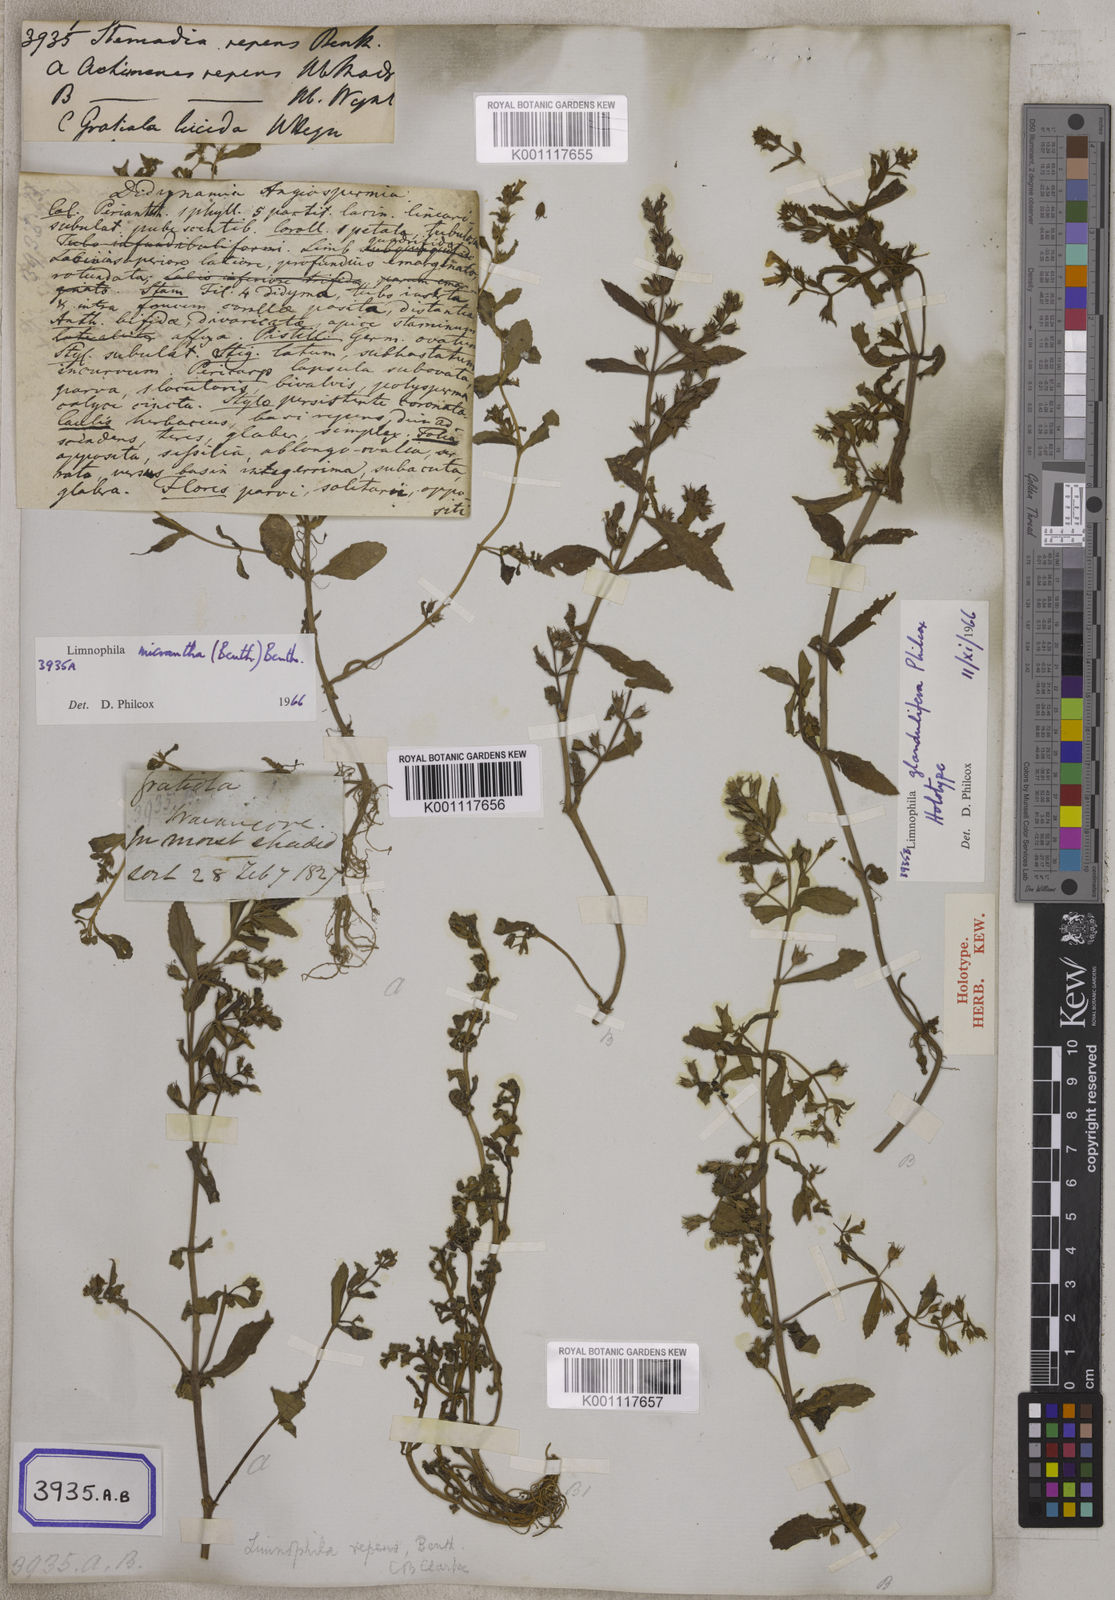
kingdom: Plantae
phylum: Tracheophyta
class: Magnoliopsida
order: Lamiales
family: Plantaginaceae
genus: Limnophila
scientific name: Limnophila repens
